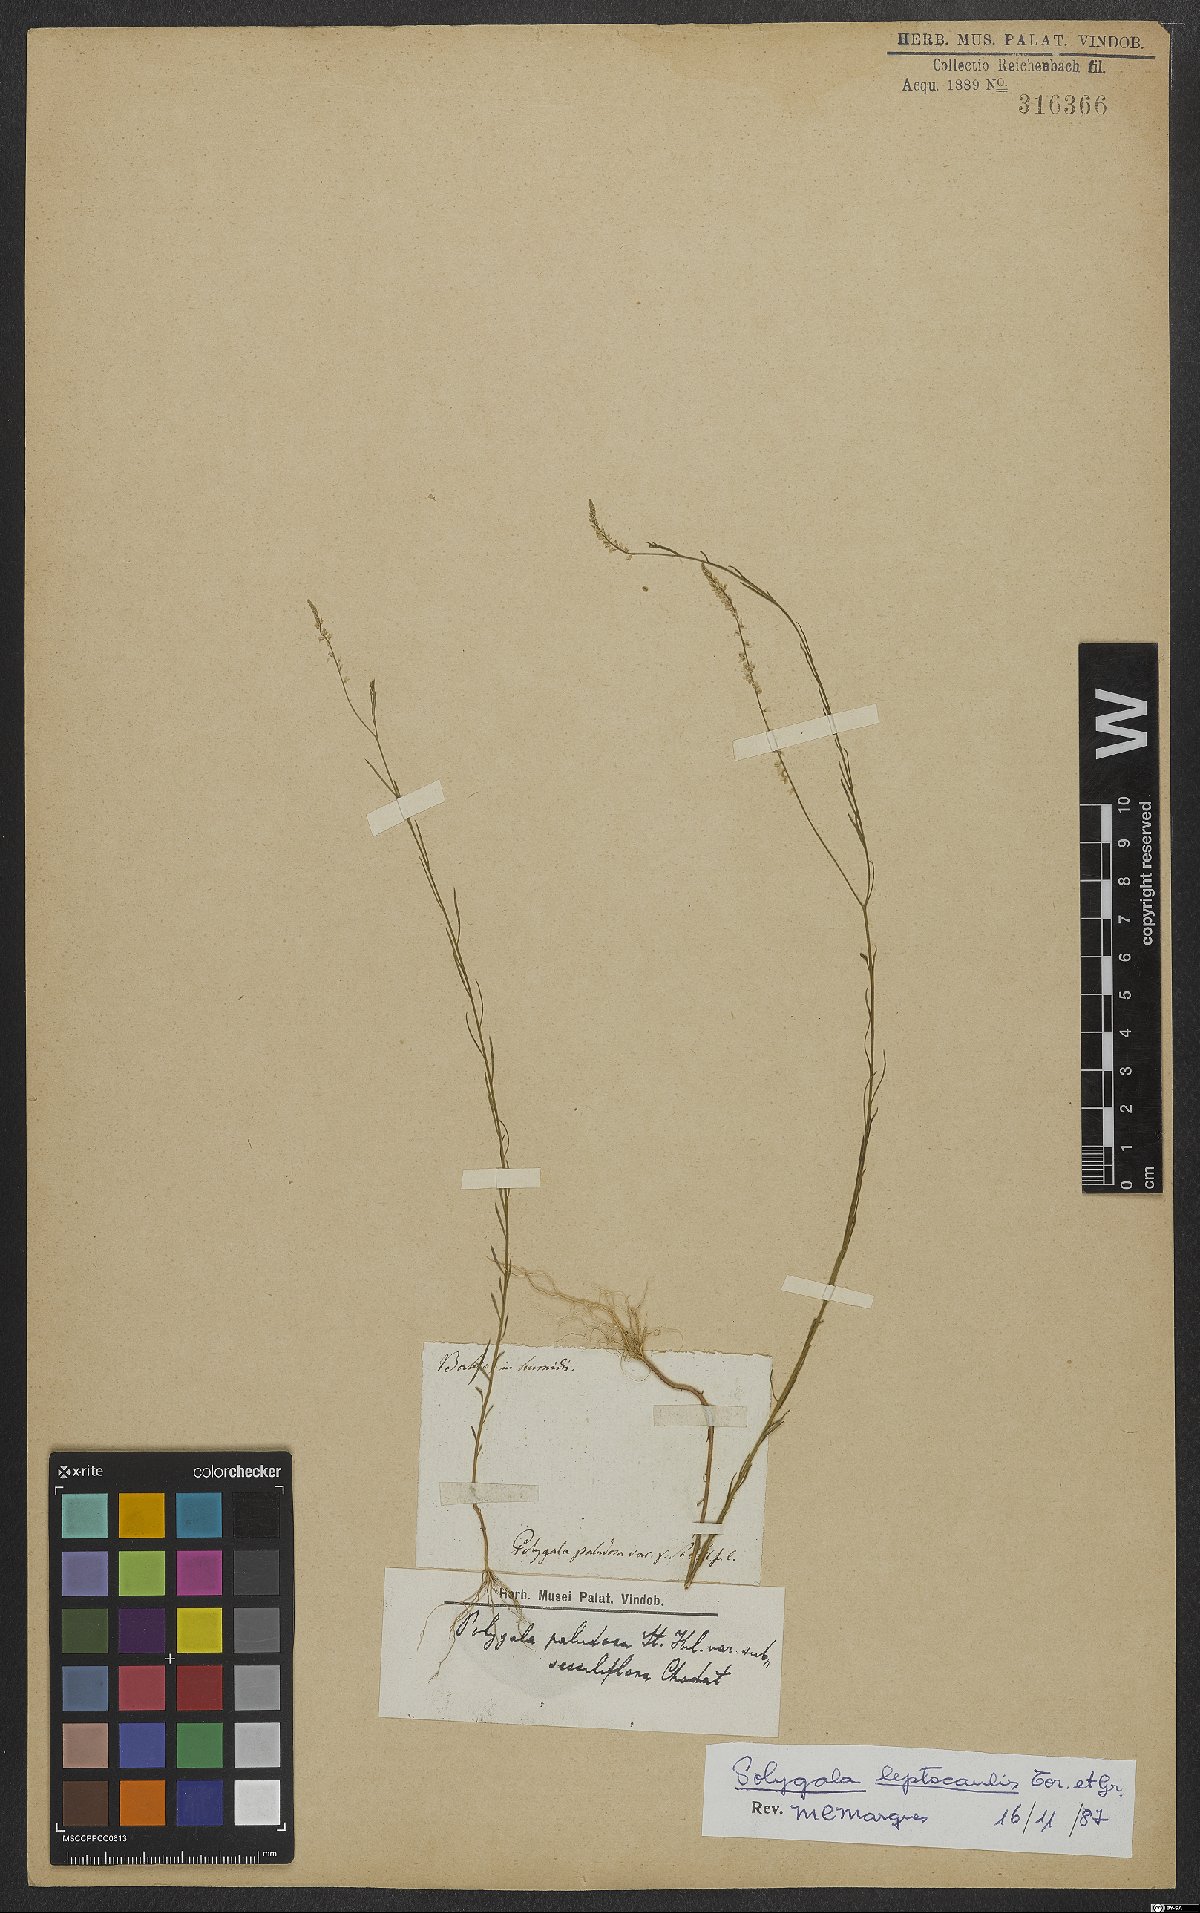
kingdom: Plantae
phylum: Tracheophyta
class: Magnoliopsida
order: Fabales
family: Polygalaceae
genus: Polygala
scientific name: Polygala tenella
